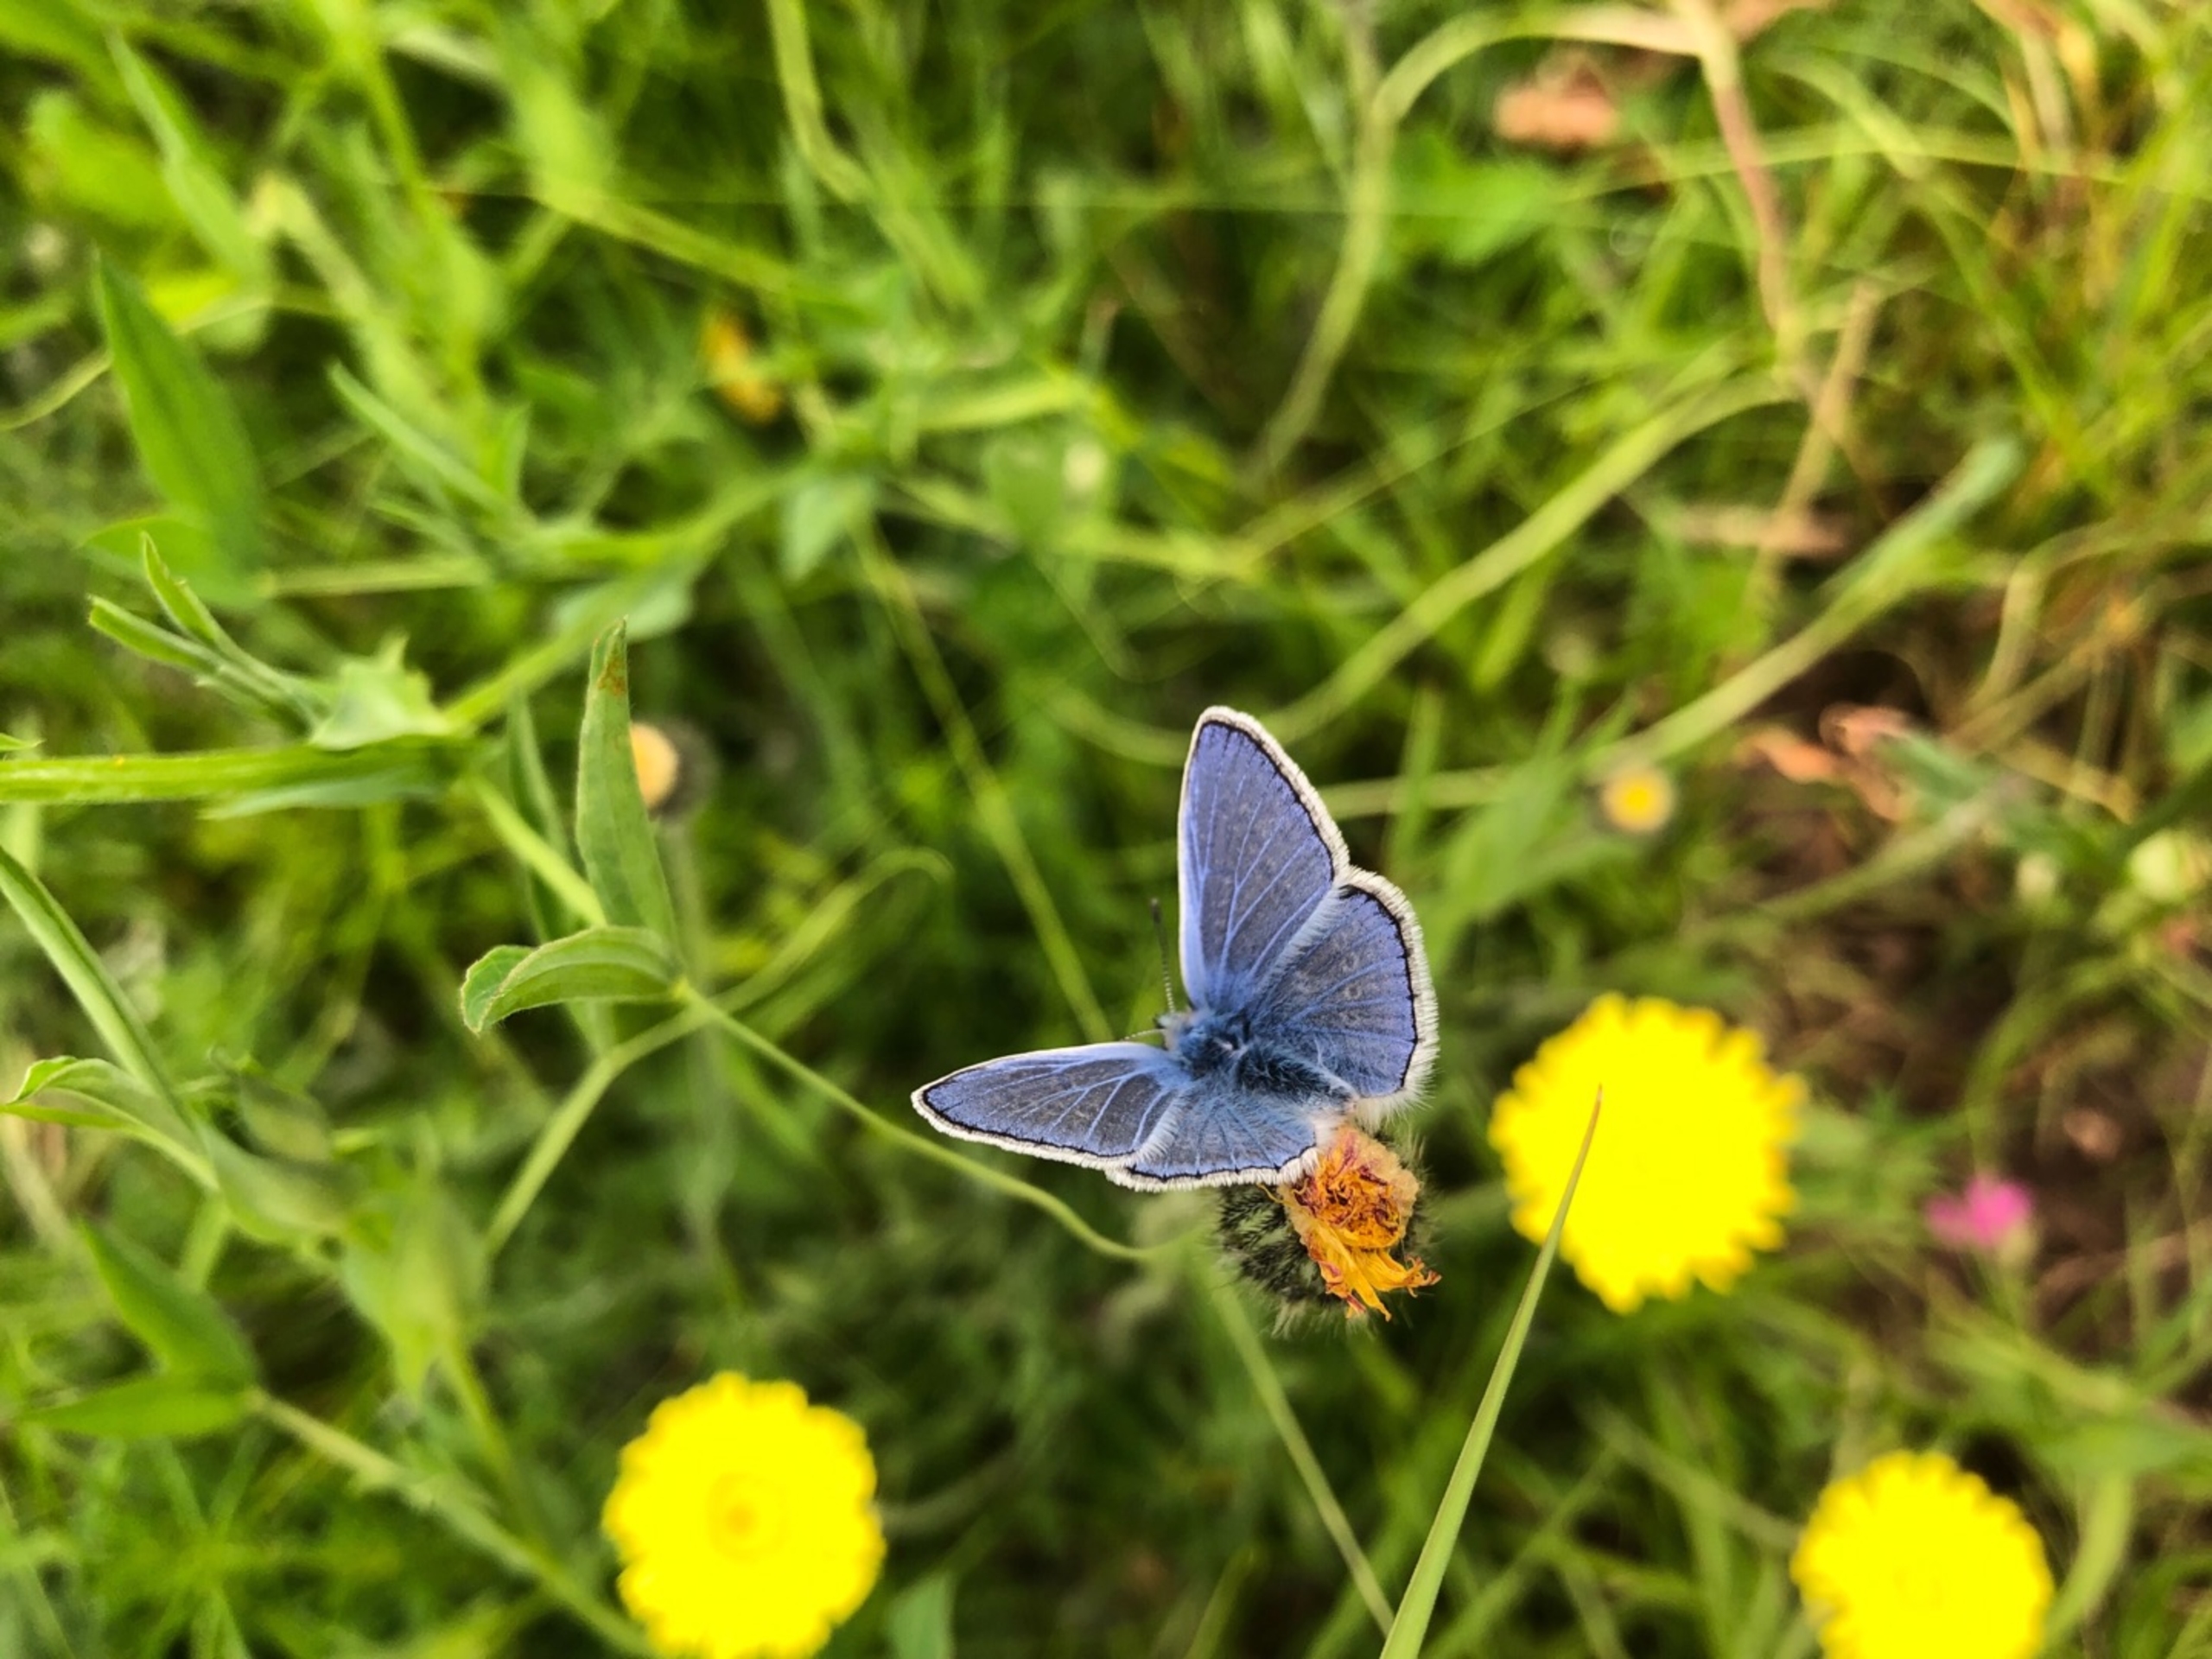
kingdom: Animalia
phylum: Arthropoda
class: Insecta
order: Lepidoptera
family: Lycaenidae
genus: Polyommatus
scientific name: Polyommatus icarus
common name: Almindelig blåfugl
